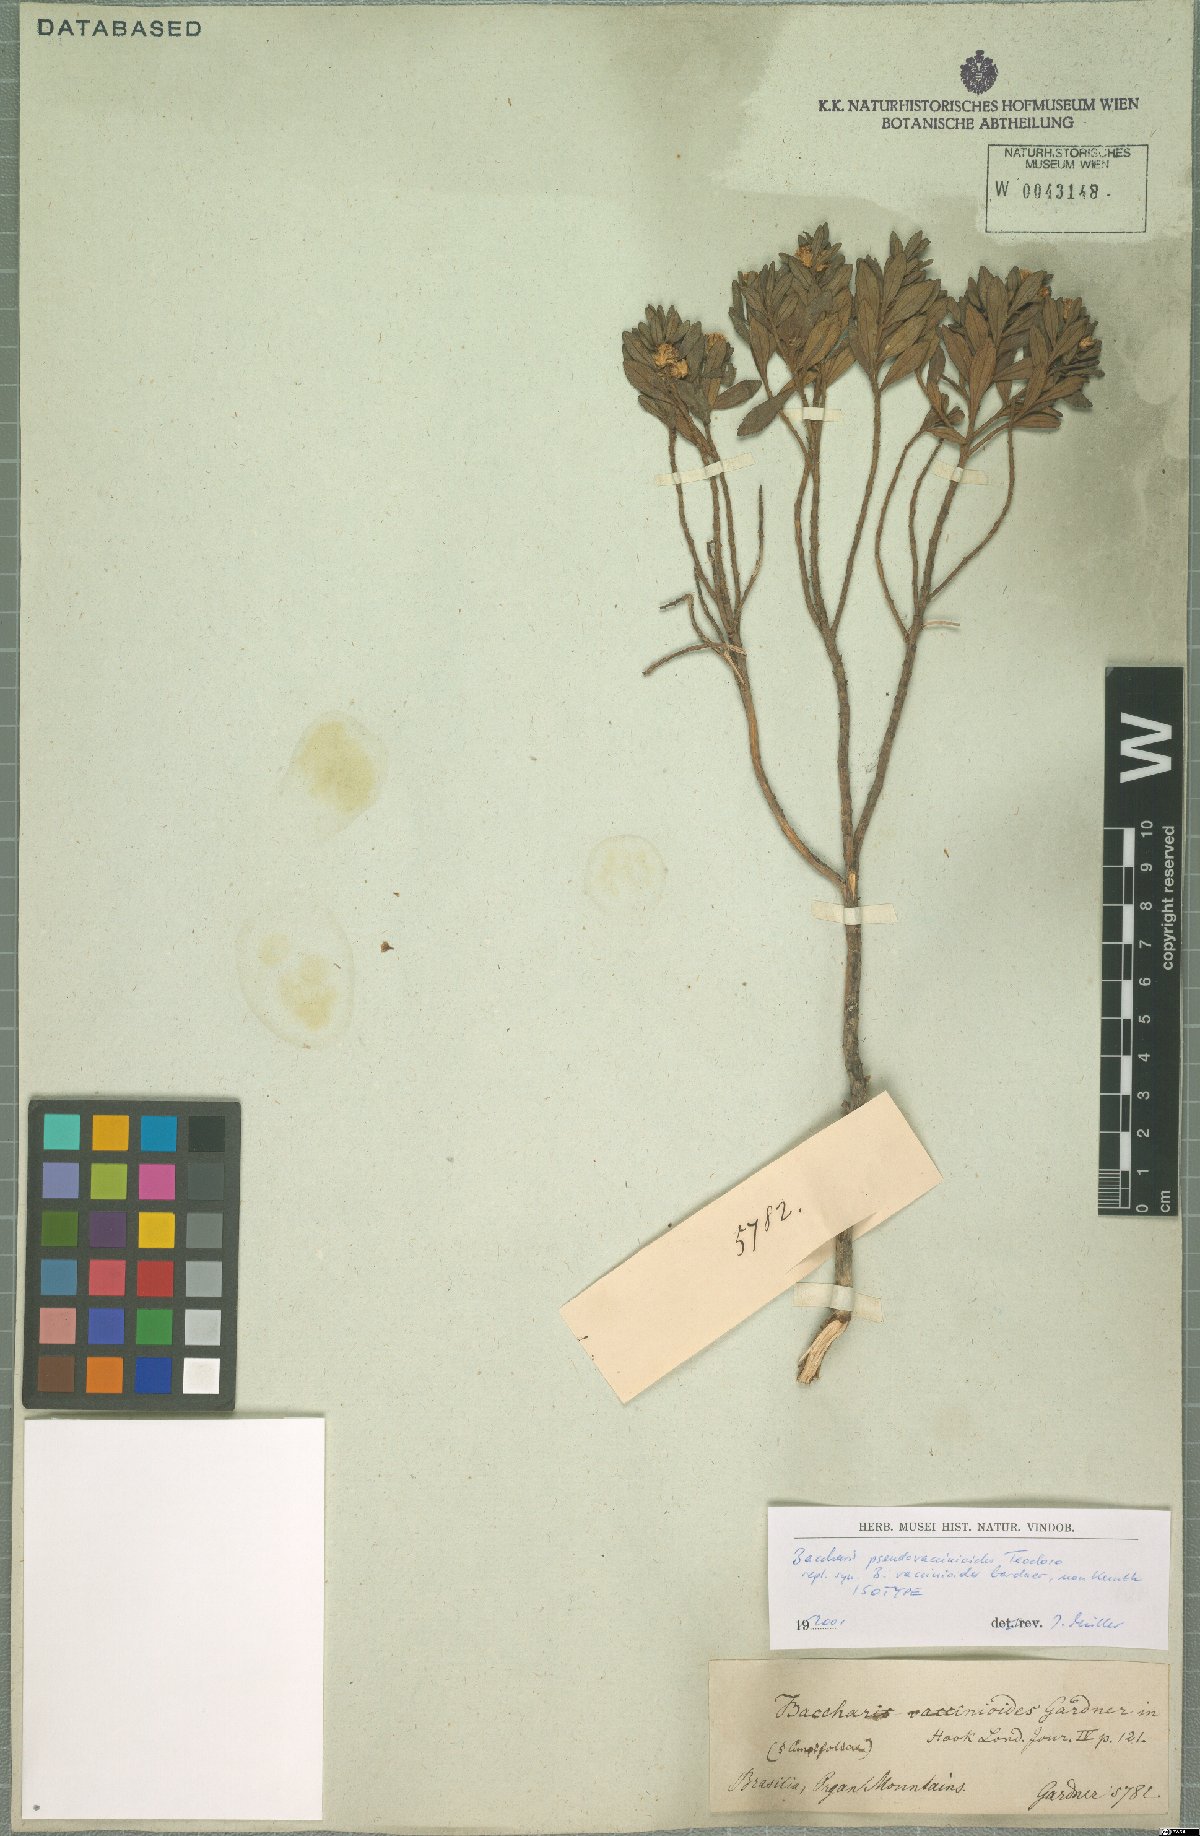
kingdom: Plantae
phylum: Tracheophyta
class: Magnoliopsida
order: Asterales
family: Asteraceae
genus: Baccharis
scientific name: Baccharis pseudovaccinioides
